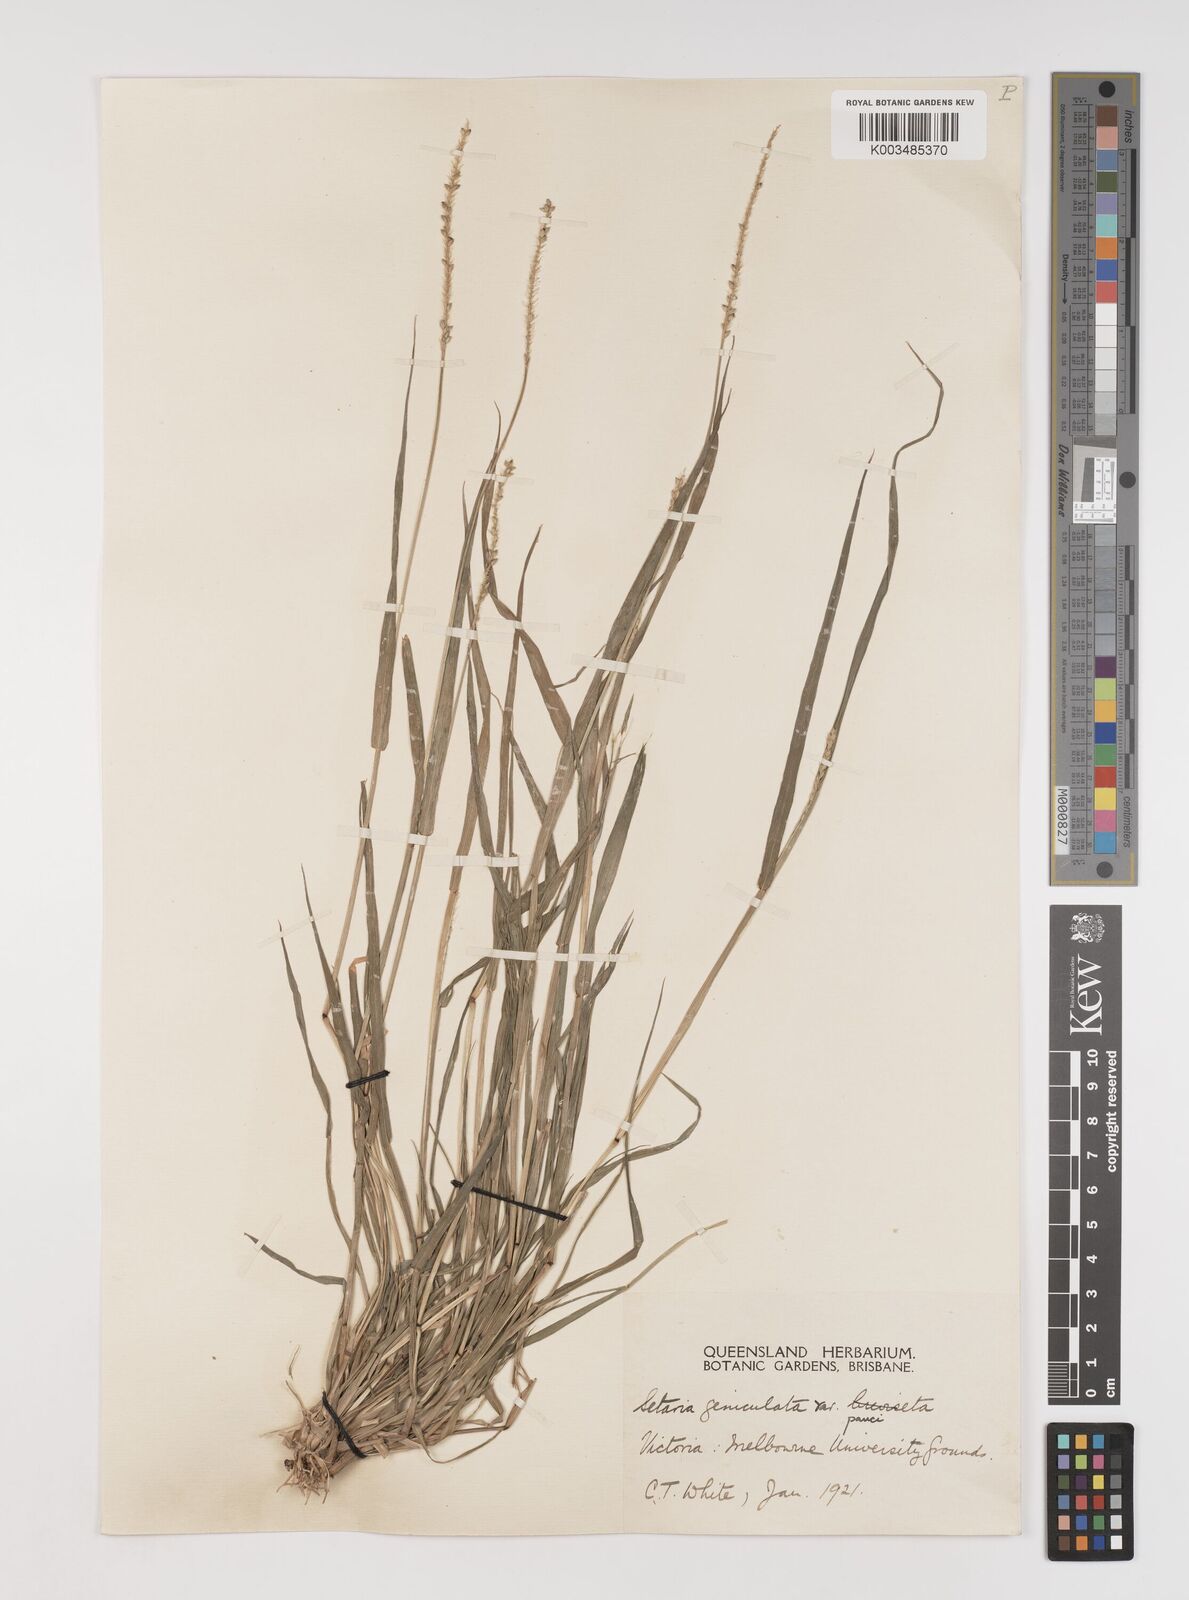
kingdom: Plantae
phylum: Tracheophyta
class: Liliopsida
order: Poales
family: Poaceae
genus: Setaria
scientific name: Setaria parviflora
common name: Knotroot bristle-grass
